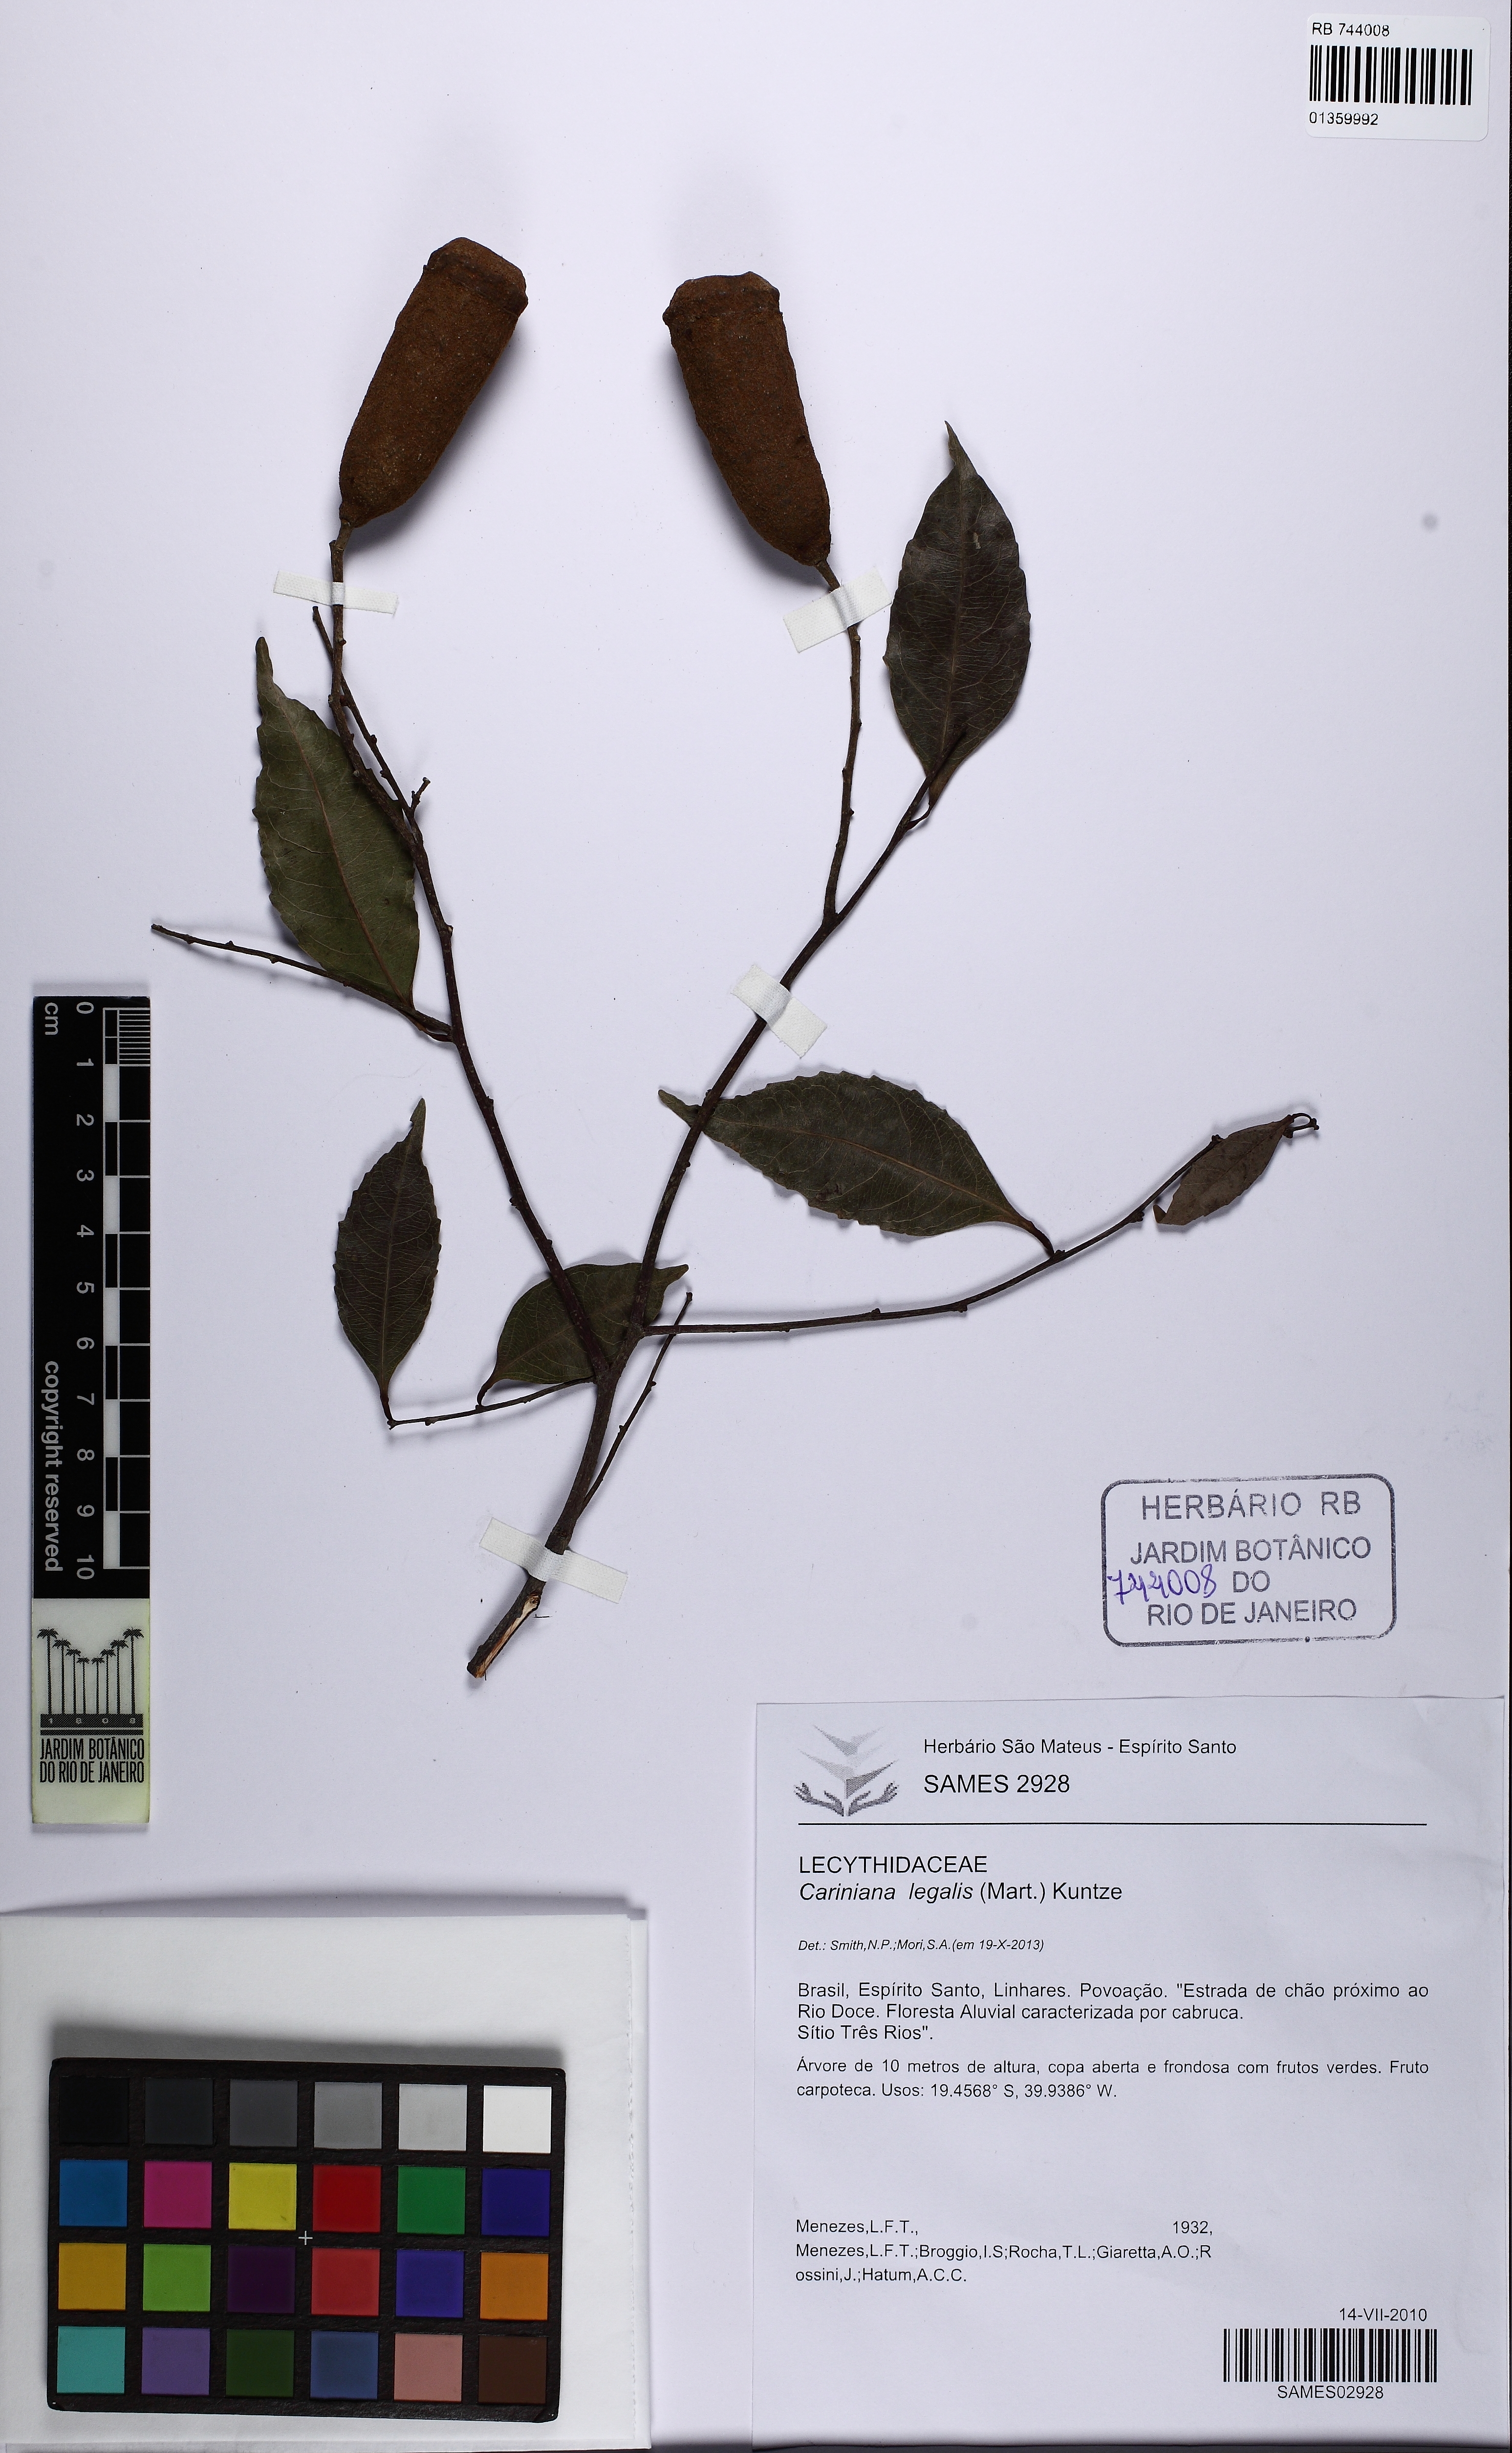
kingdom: Plantae
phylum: Tracheophyta
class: Magnoliopsida
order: Ericales
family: Lecythidaceae
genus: Cariniana
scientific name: Cariniana legalis
